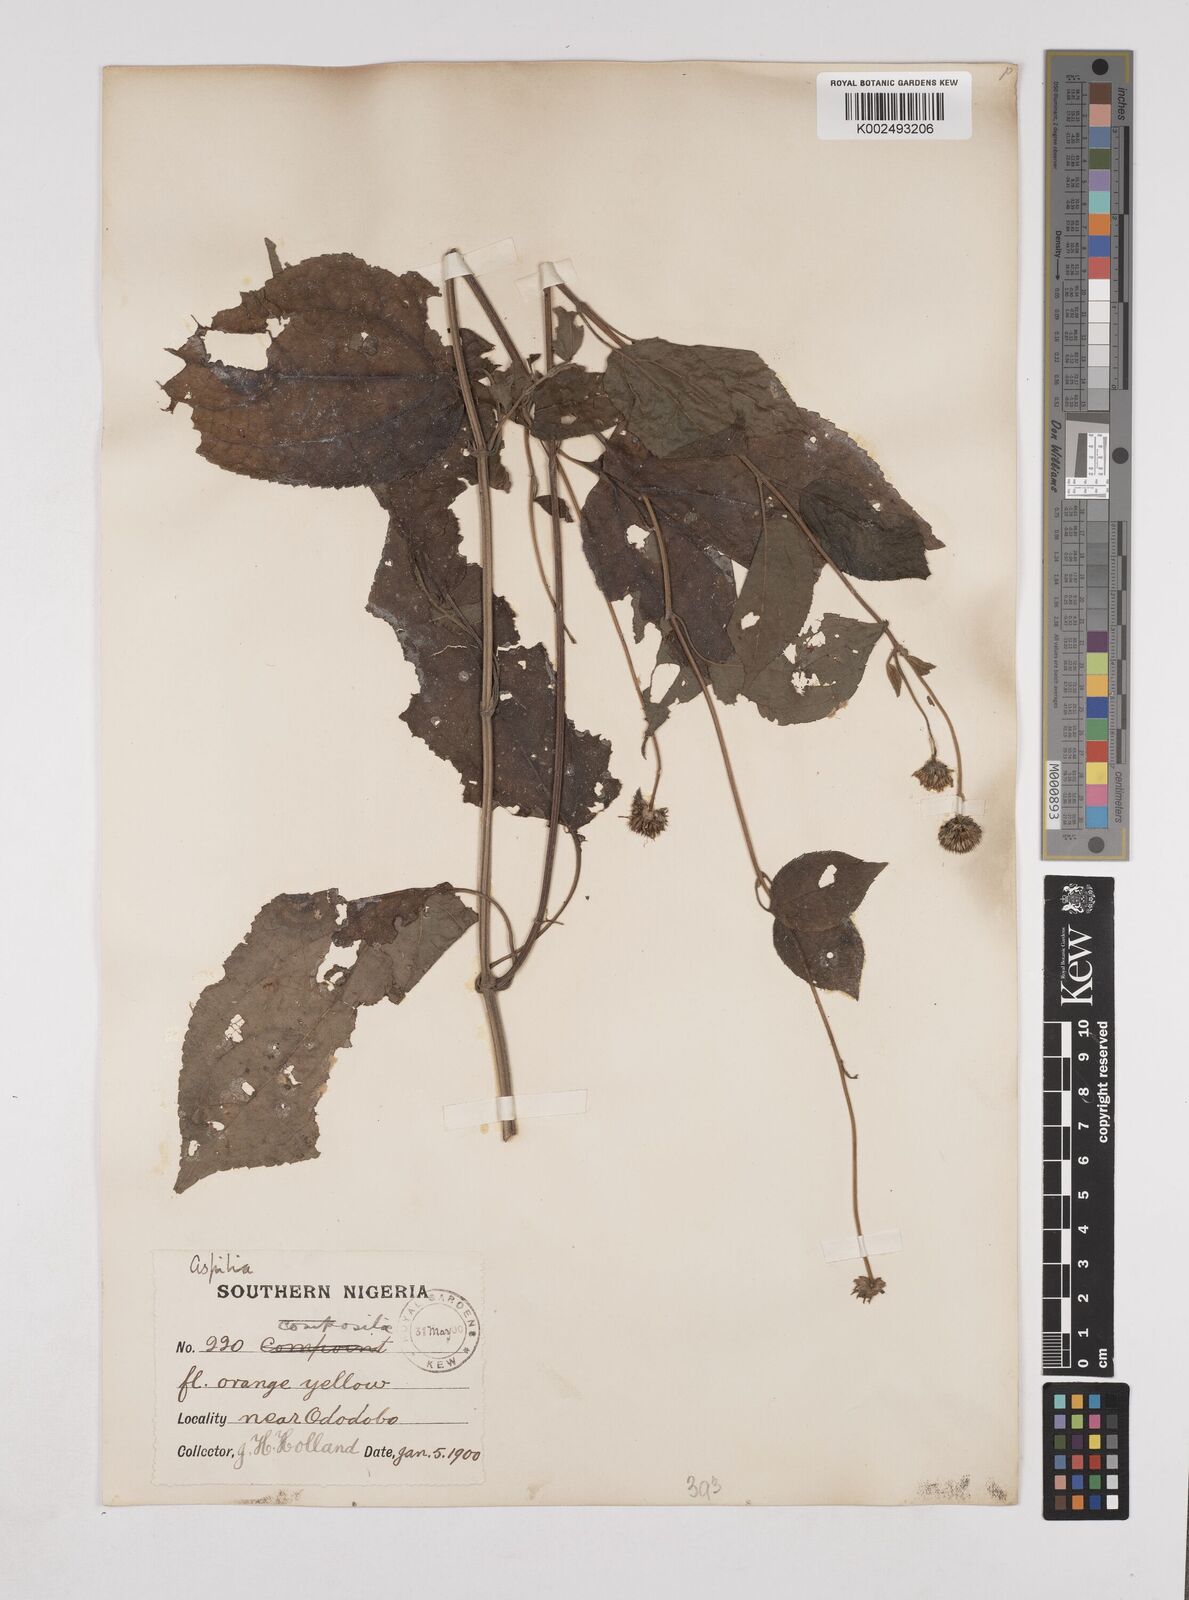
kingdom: Plantae
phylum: Tracheophyta
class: Magnoliopsida
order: Asterales
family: Asteraceae
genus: Lipotriche
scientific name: Lipotriche scandens
